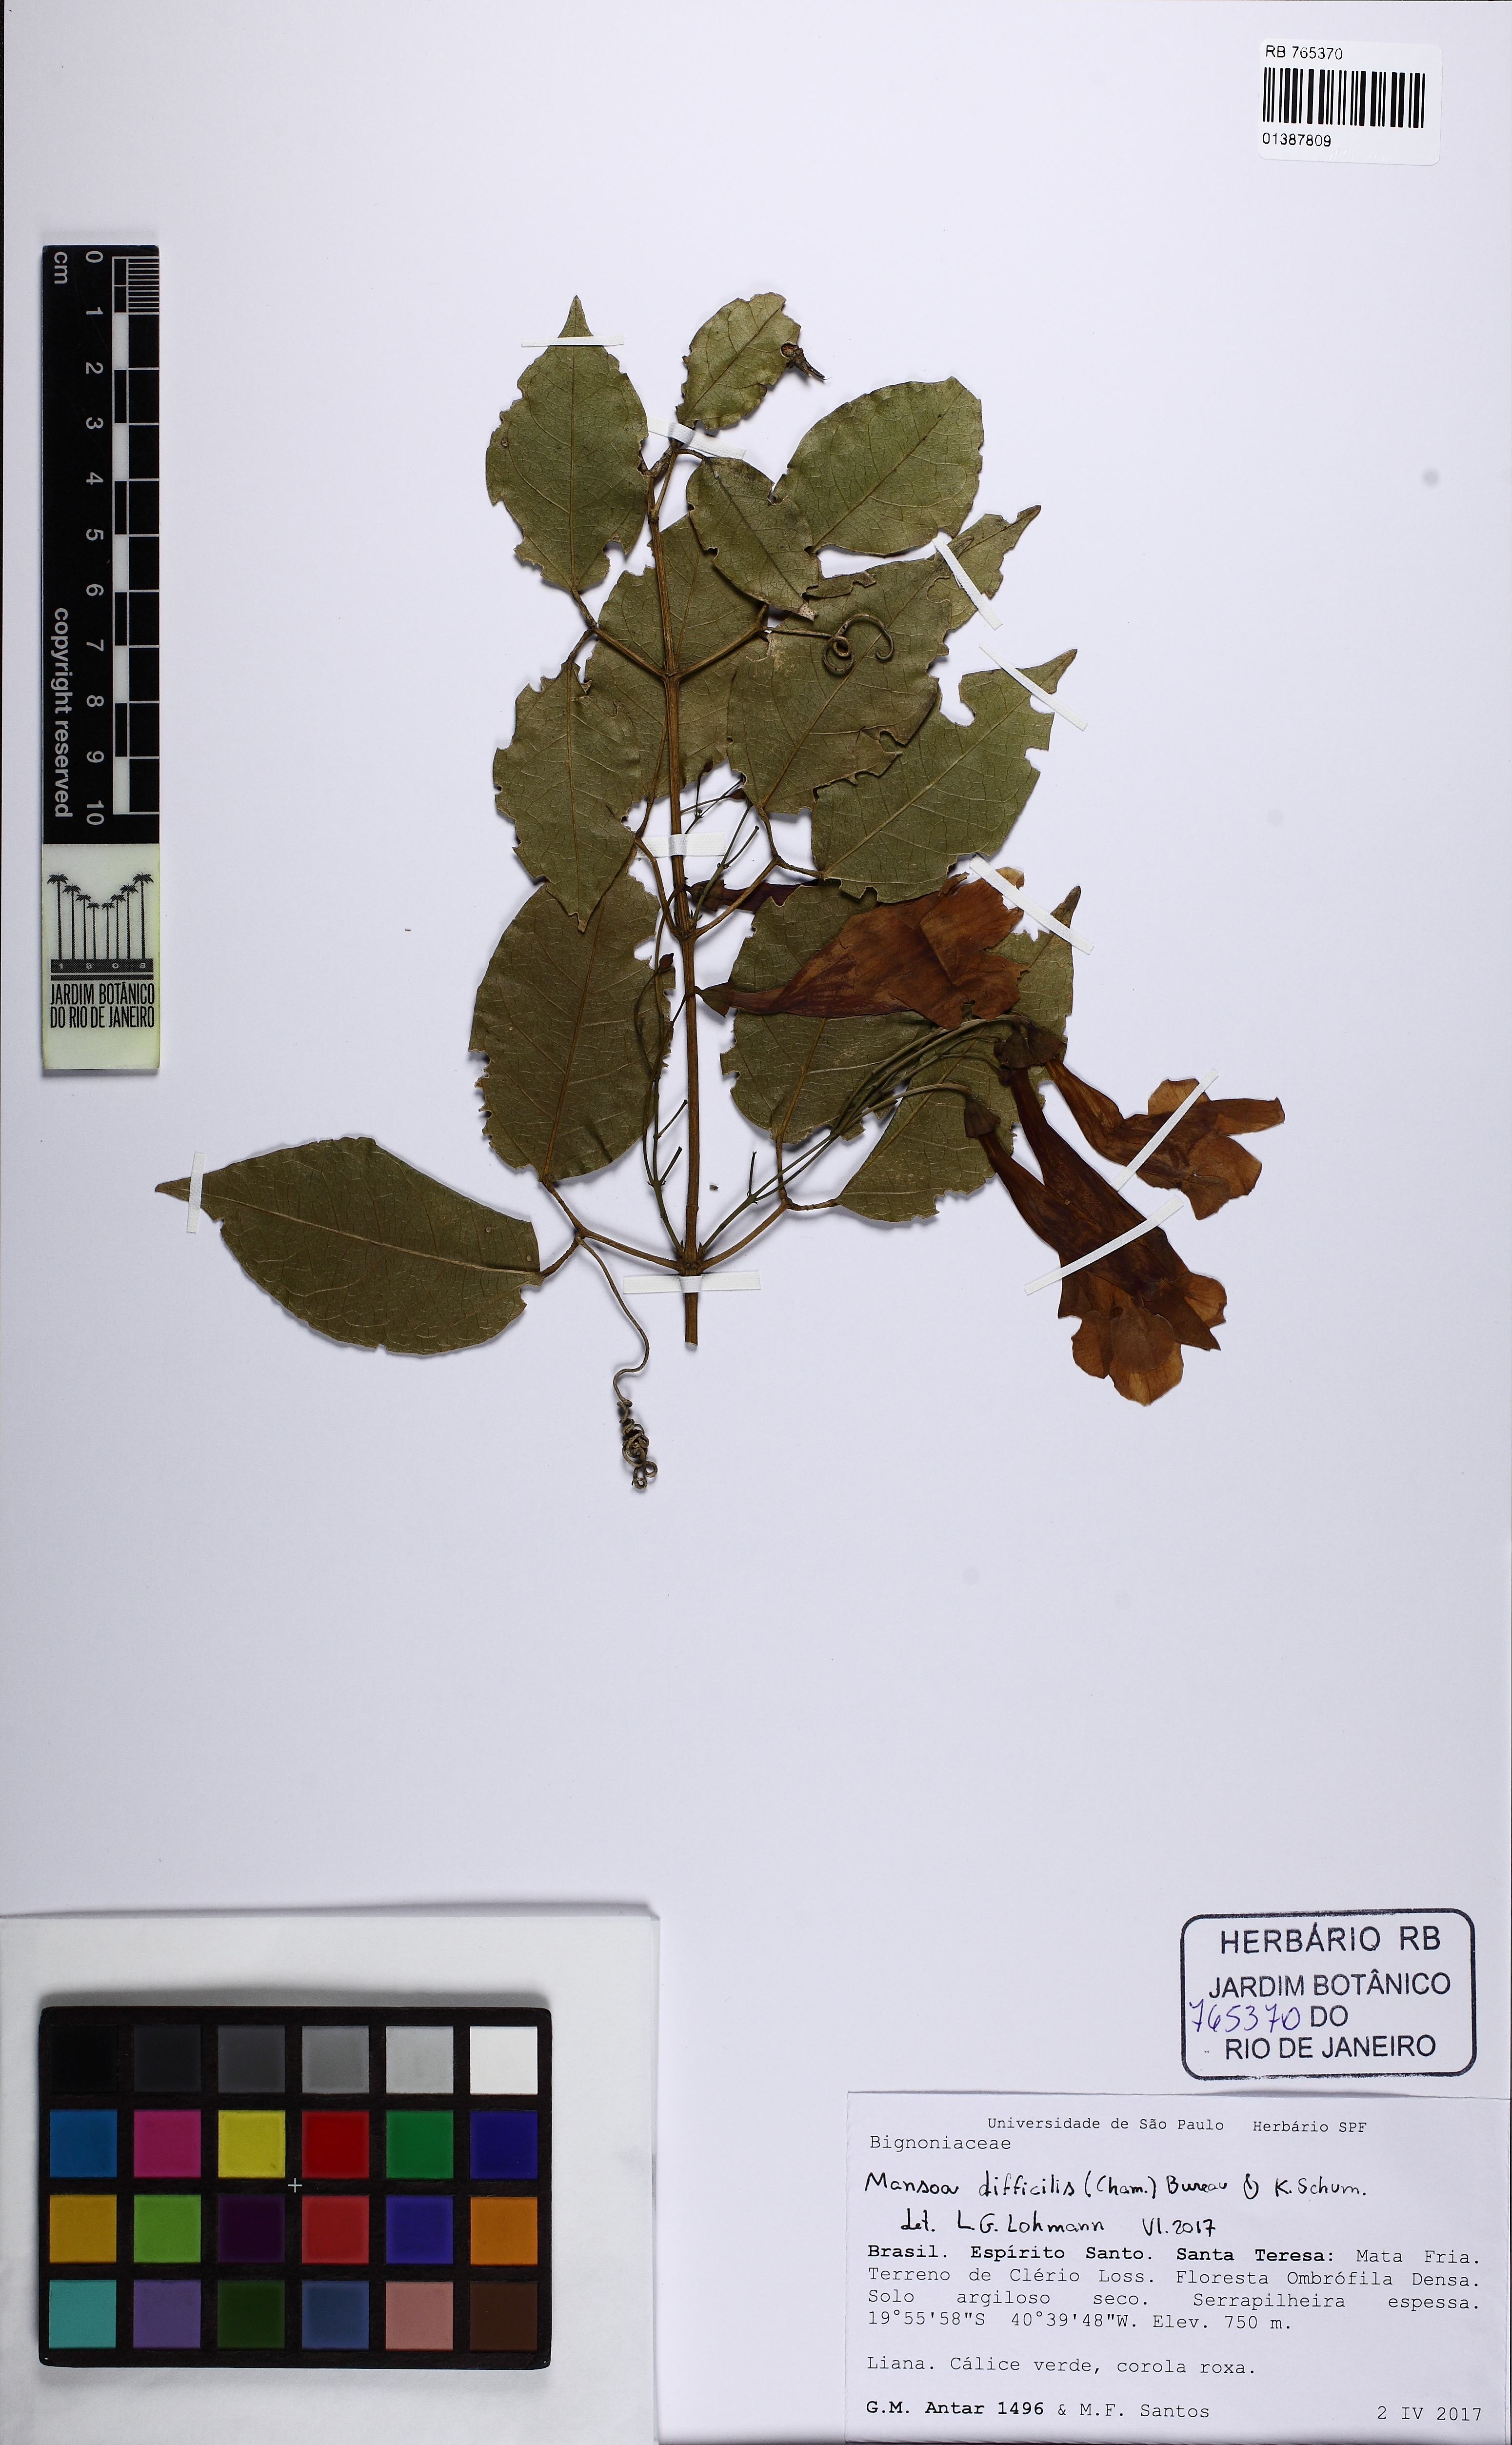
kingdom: Plantae
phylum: Tracheophyta
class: Magnoliopsida
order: Lamiales
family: Bignoniaceae
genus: Mansoa
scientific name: Mansoa difficilis
